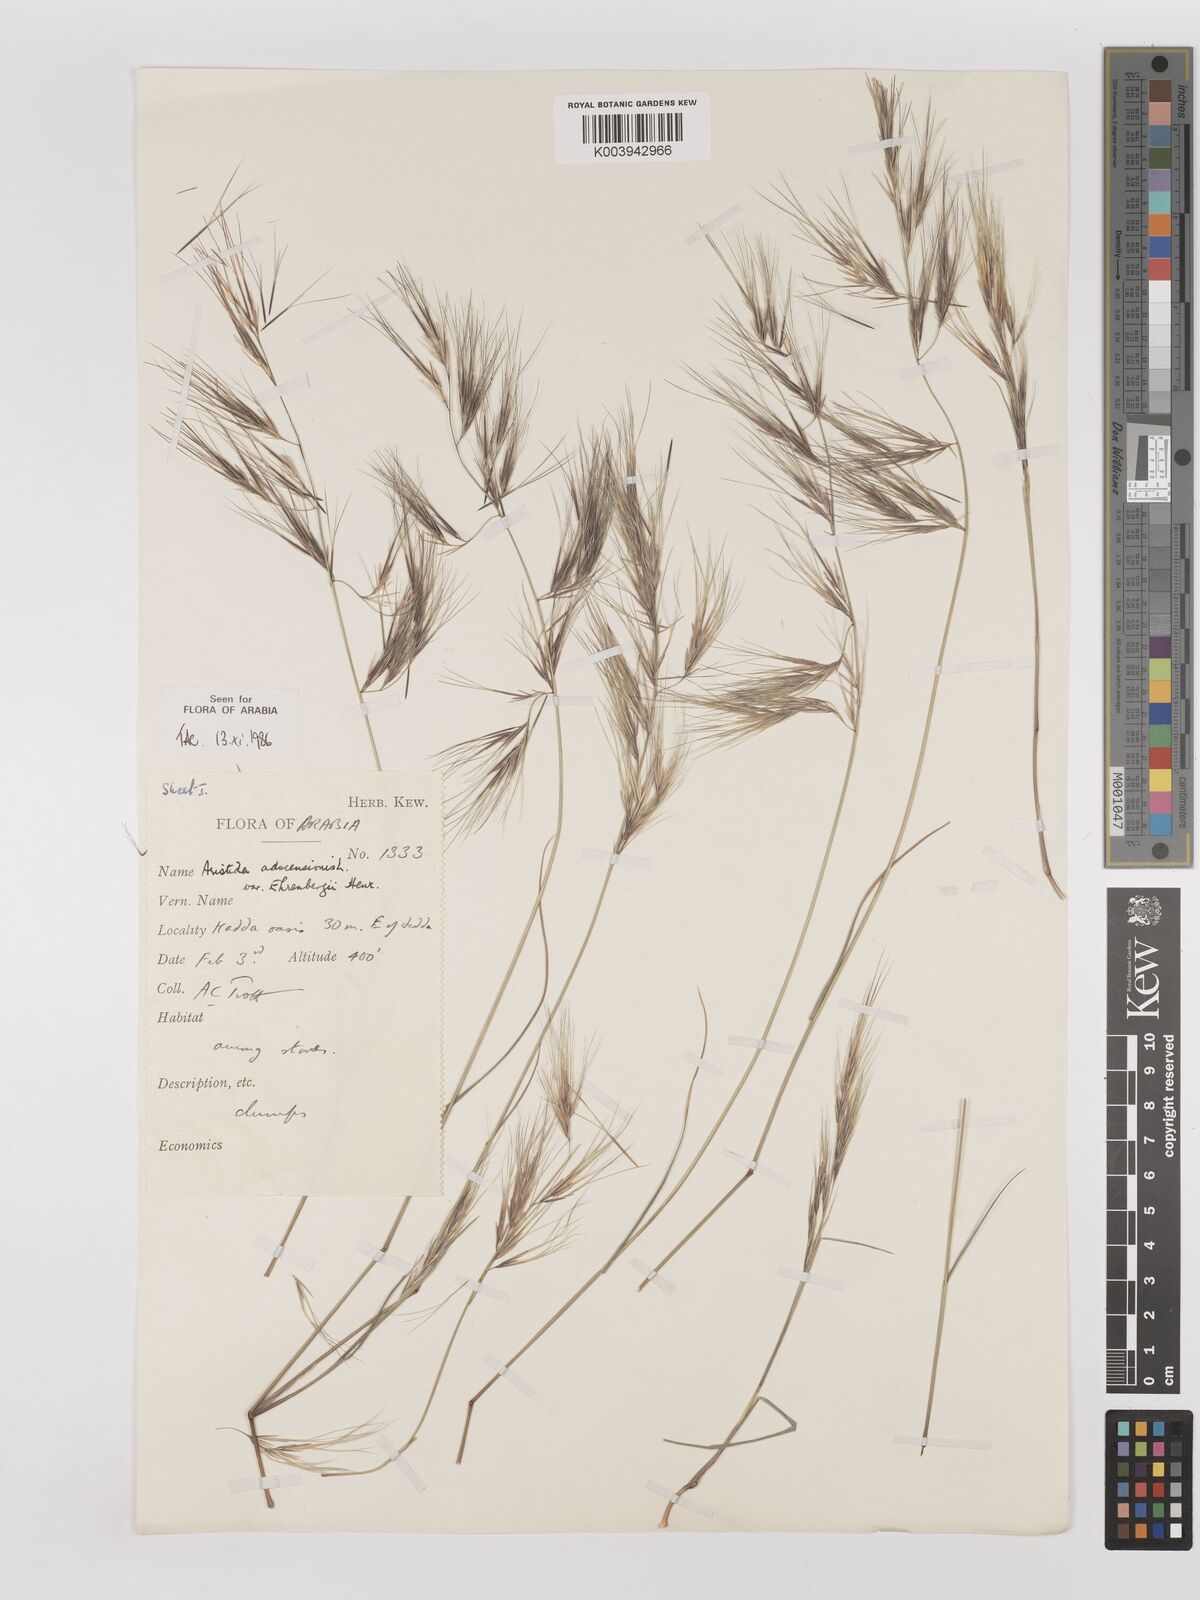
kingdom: Plantae
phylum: Tracheophyta
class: Liliopsida
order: Poales
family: Poaceae
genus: Aristida
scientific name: Aristida adscensionis
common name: Sixweeks threeawn
